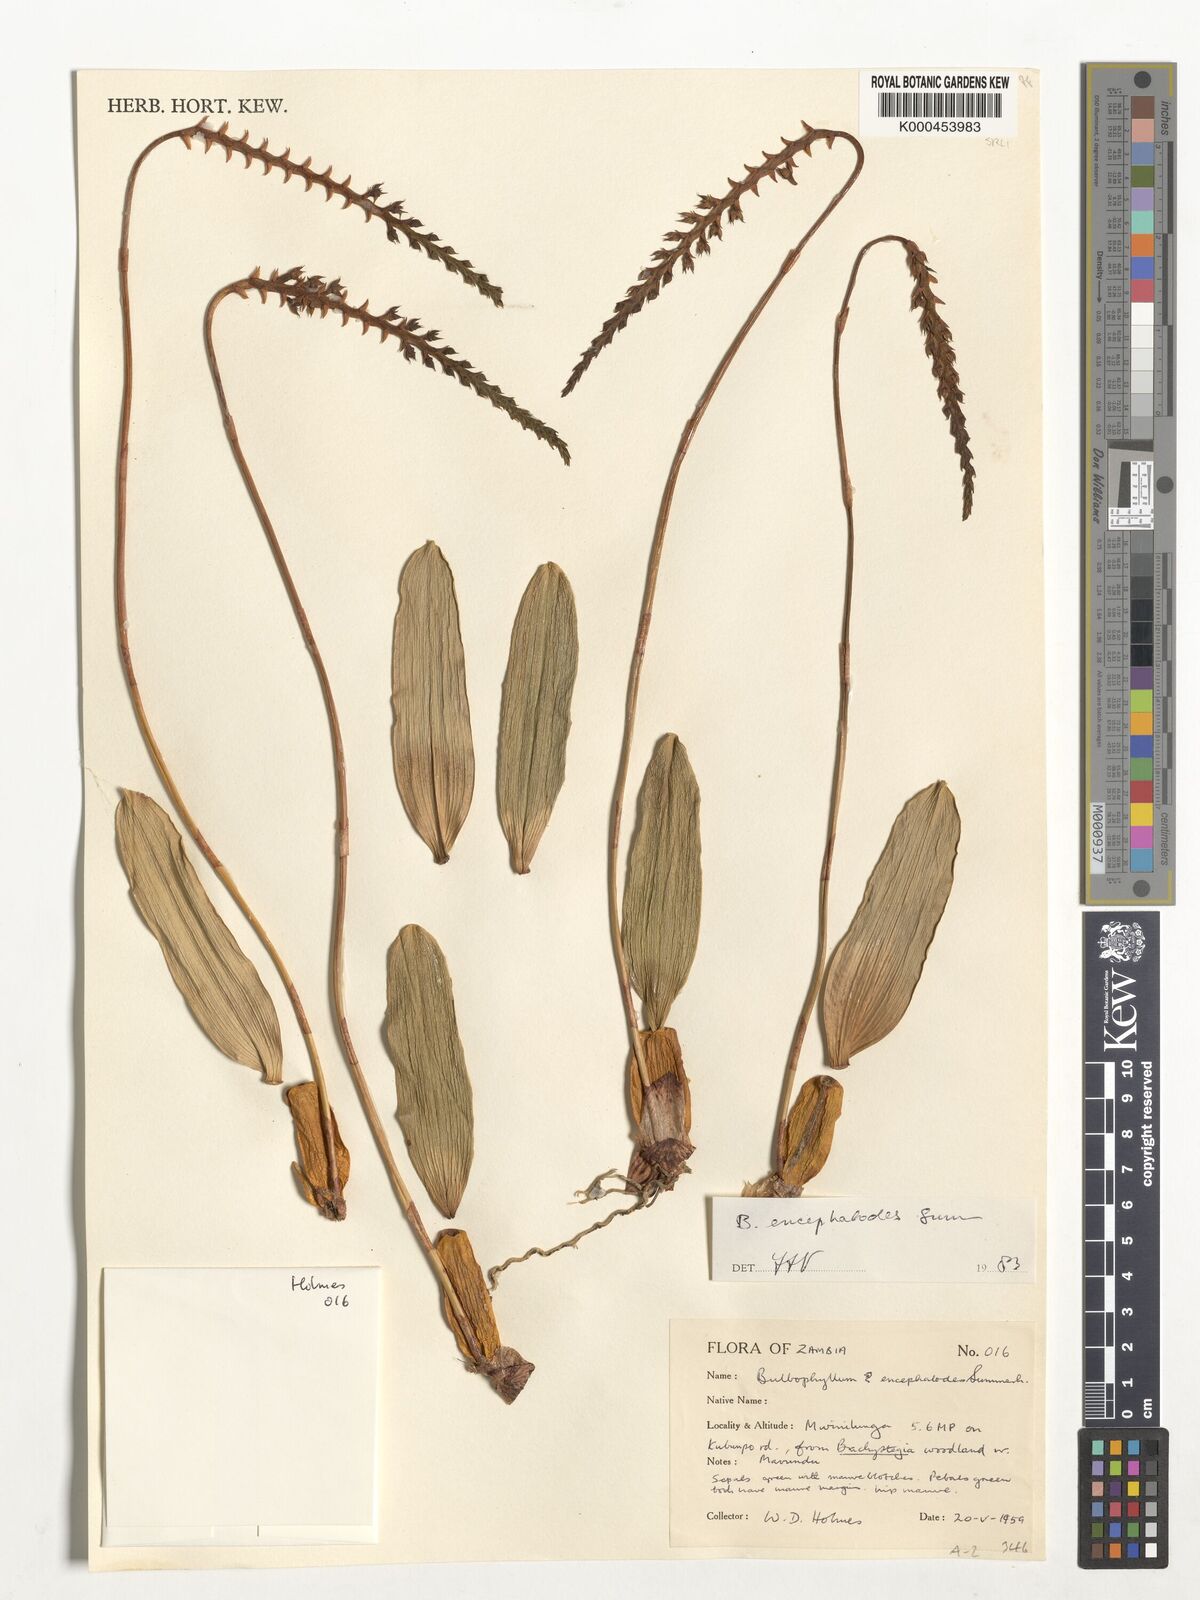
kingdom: Plantae
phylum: Tracheophyta
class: Liliopsida
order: Asparagales
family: Orchidaceae
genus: Bulbophyllum
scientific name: Bulbophyllum encephalodes
